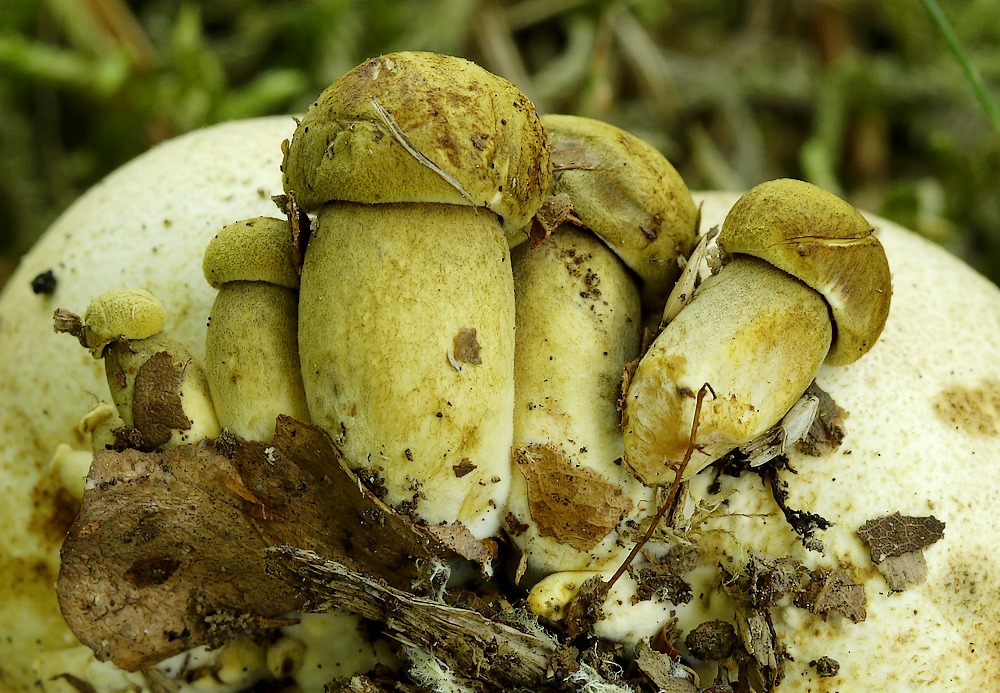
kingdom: Fungi
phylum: Basidiomycota
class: Agaricomycetes
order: Boletales
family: Boletaceae
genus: Pseudoboletus
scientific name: Pseudoboletus parasiticus
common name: snyltende rørhat
